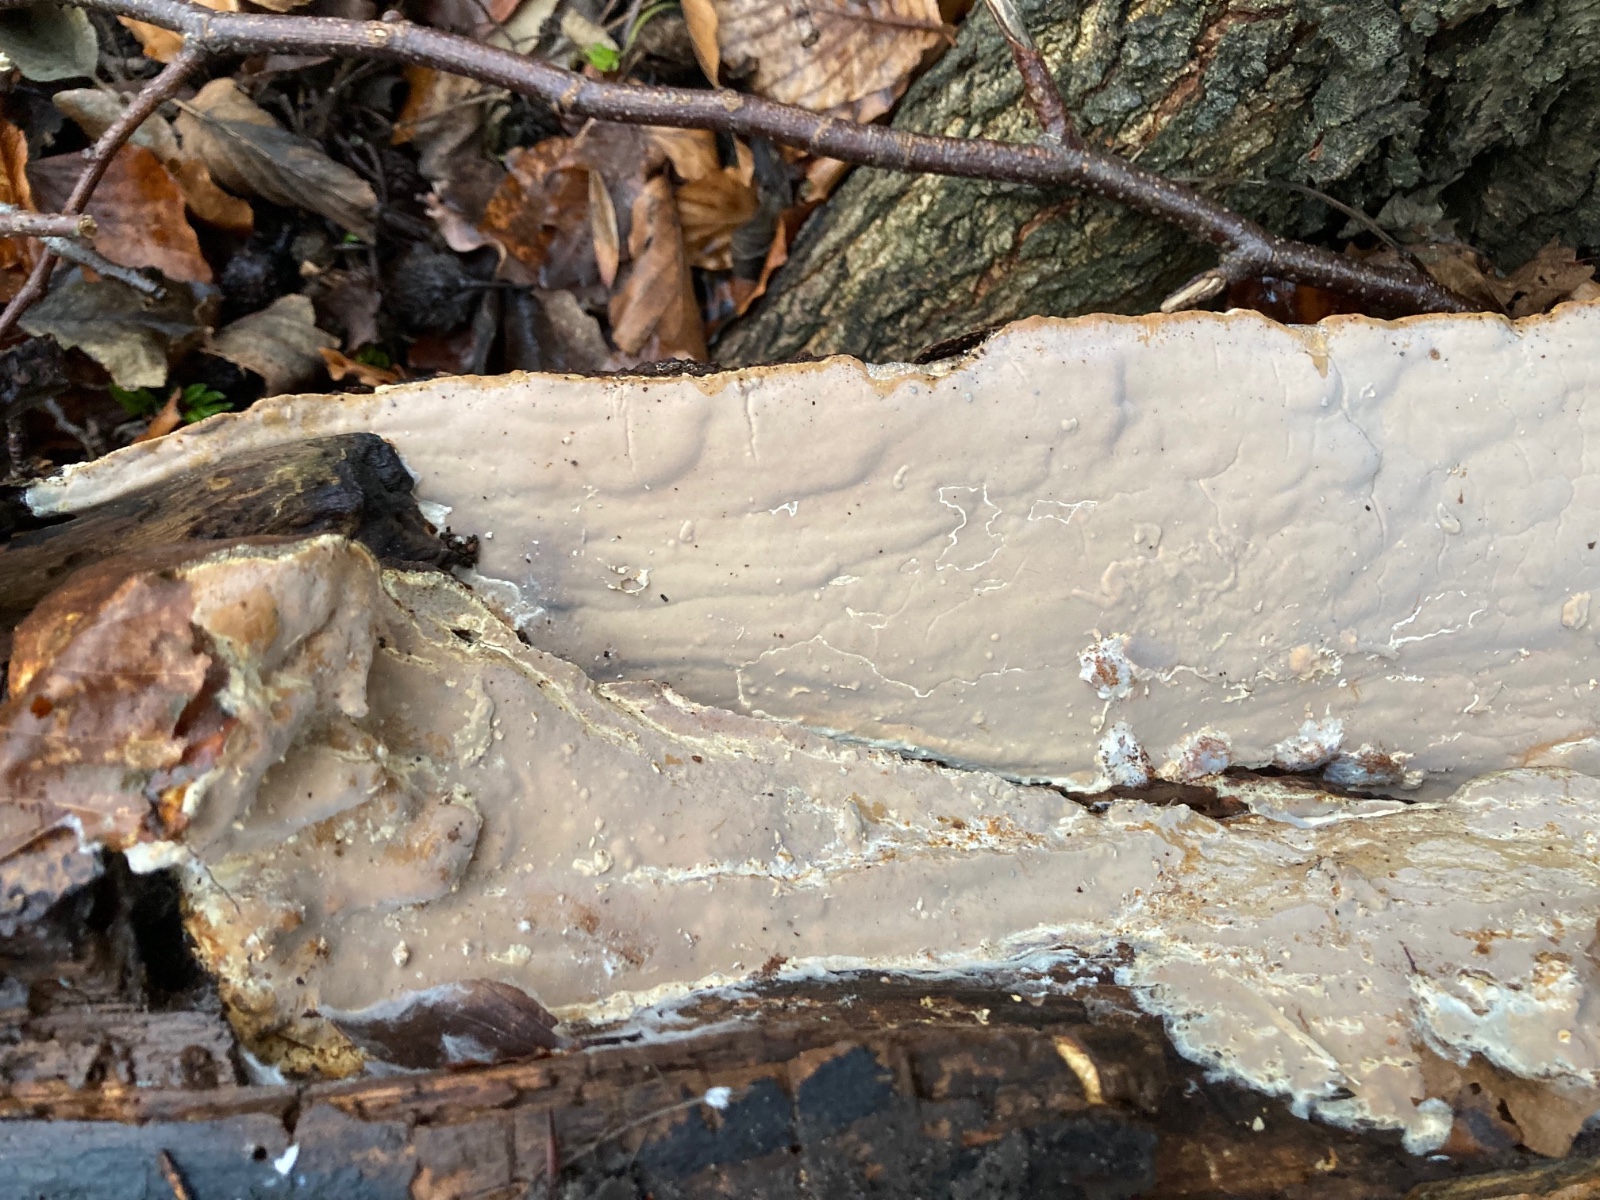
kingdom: Fungi
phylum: Basidiomycota
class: Agaricomycetes
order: Russulales
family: Peniophoraceae
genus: Scytinostroma
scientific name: Scytinostroma hemidichophyticum
